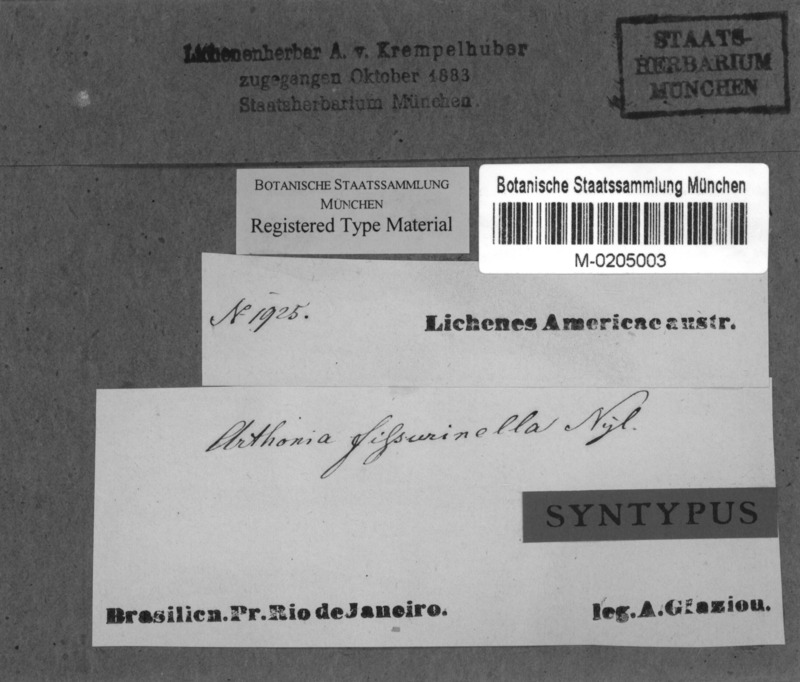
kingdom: Fungi
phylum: Ascomycota
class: Arthoniomycetes
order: Arthoniales
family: Arthoniaceae
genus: Arthonia
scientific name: Arthonia fissurina
